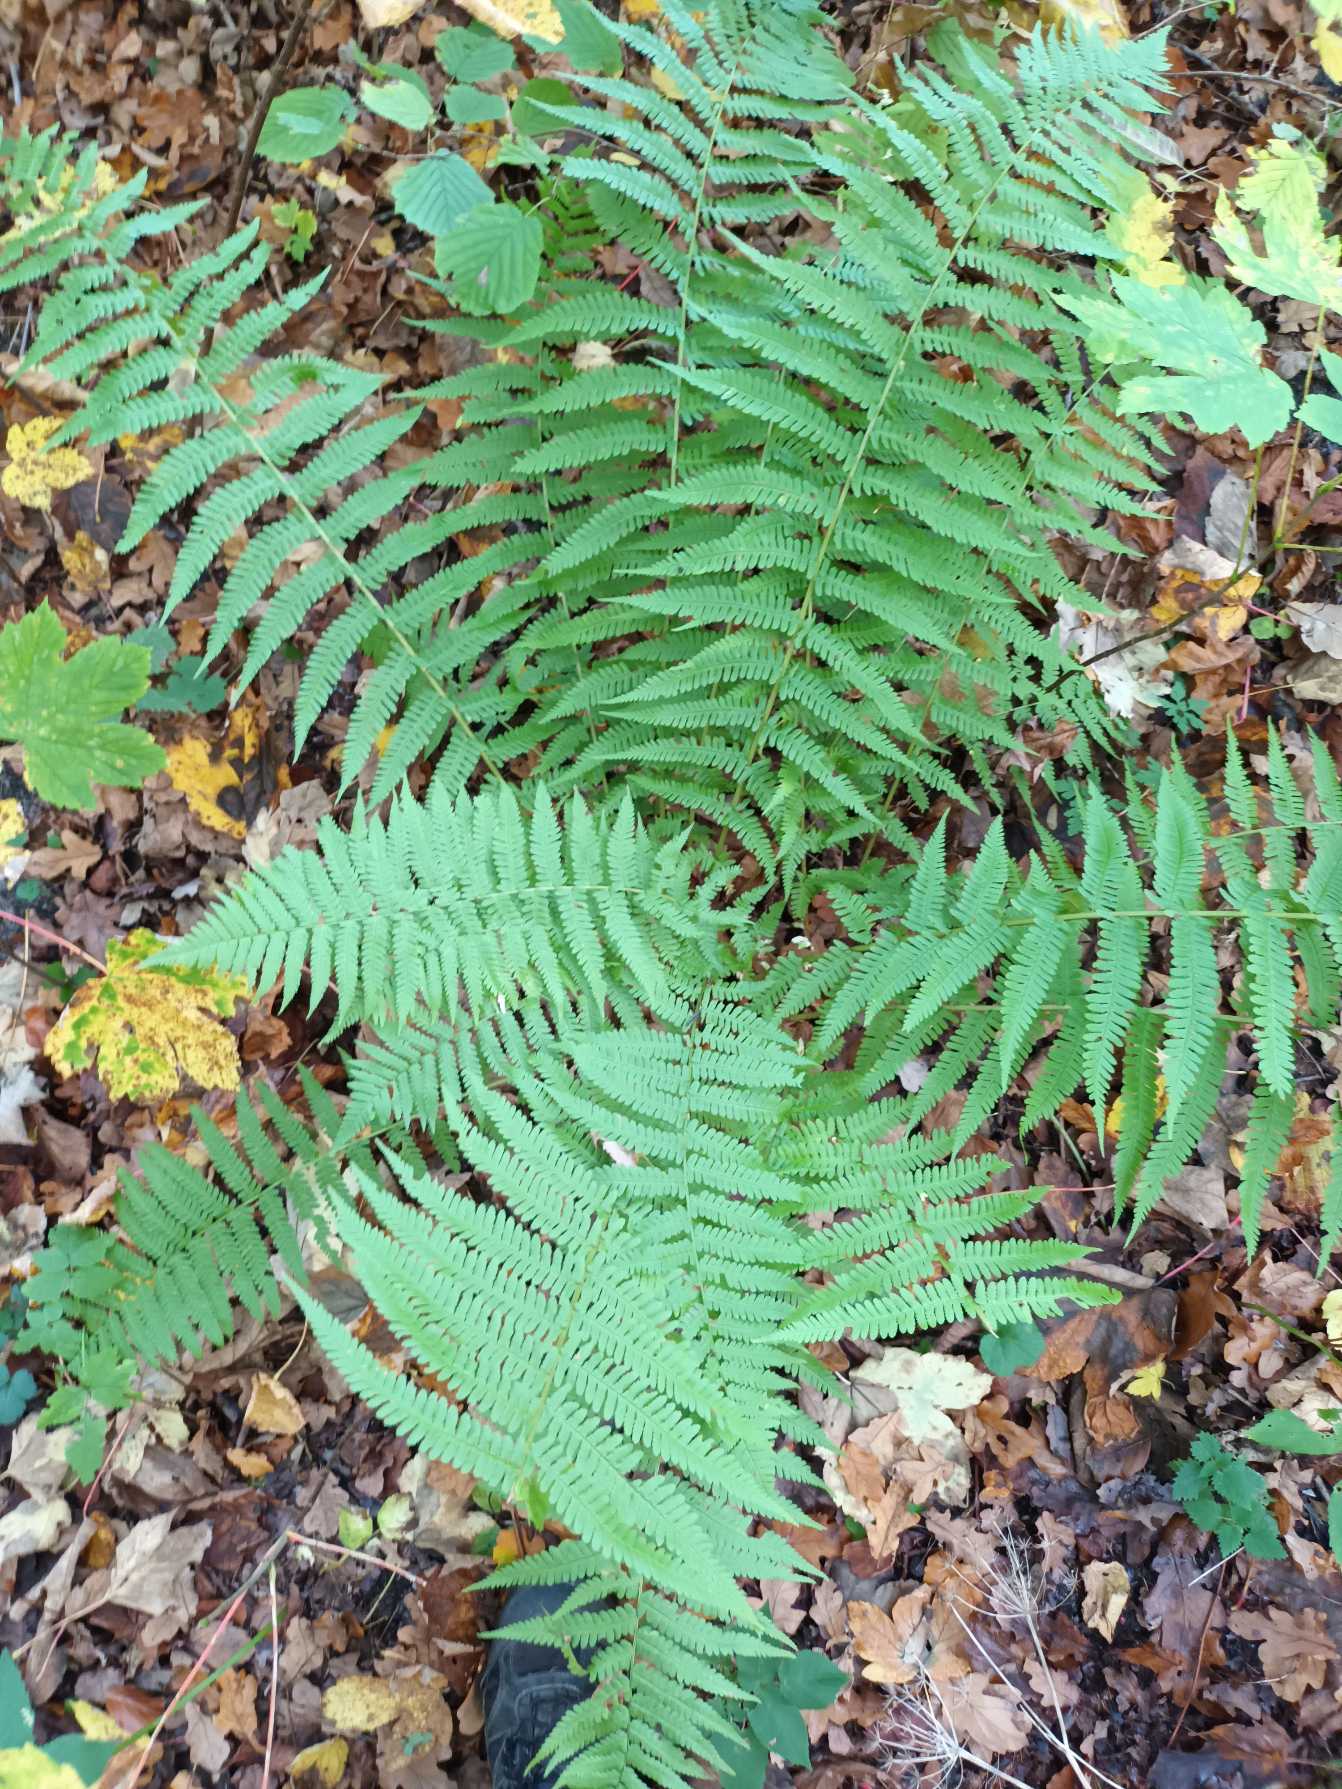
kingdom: Plantae
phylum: Tracheophyta
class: Polypodiopsida
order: Polypodiales
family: Dryopteridaceae
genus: Dryopteris
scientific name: Dryopteris filix-mas
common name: Almindelig mangeløv
